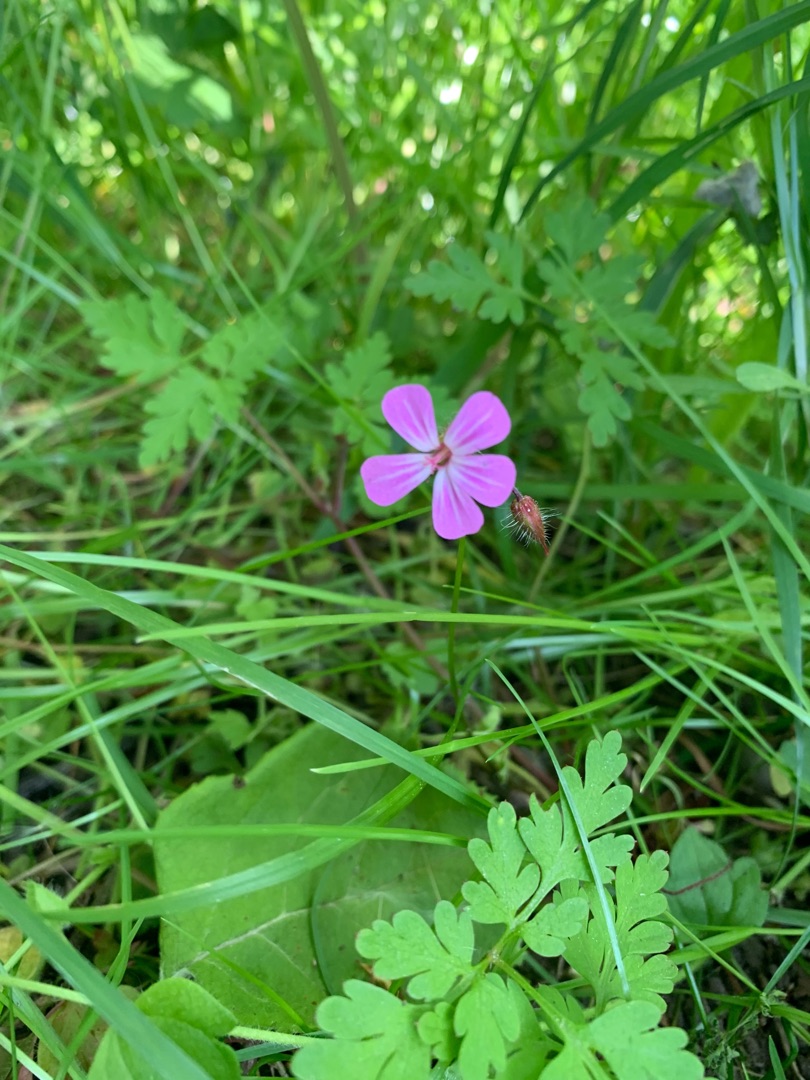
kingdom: Plantae
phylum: Tracheophyta
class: Magnoliopsida
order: Geraniales
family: Geraniaceae
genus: Geranium
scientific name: Geranium robertianum
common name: Stinkende storkenæb
